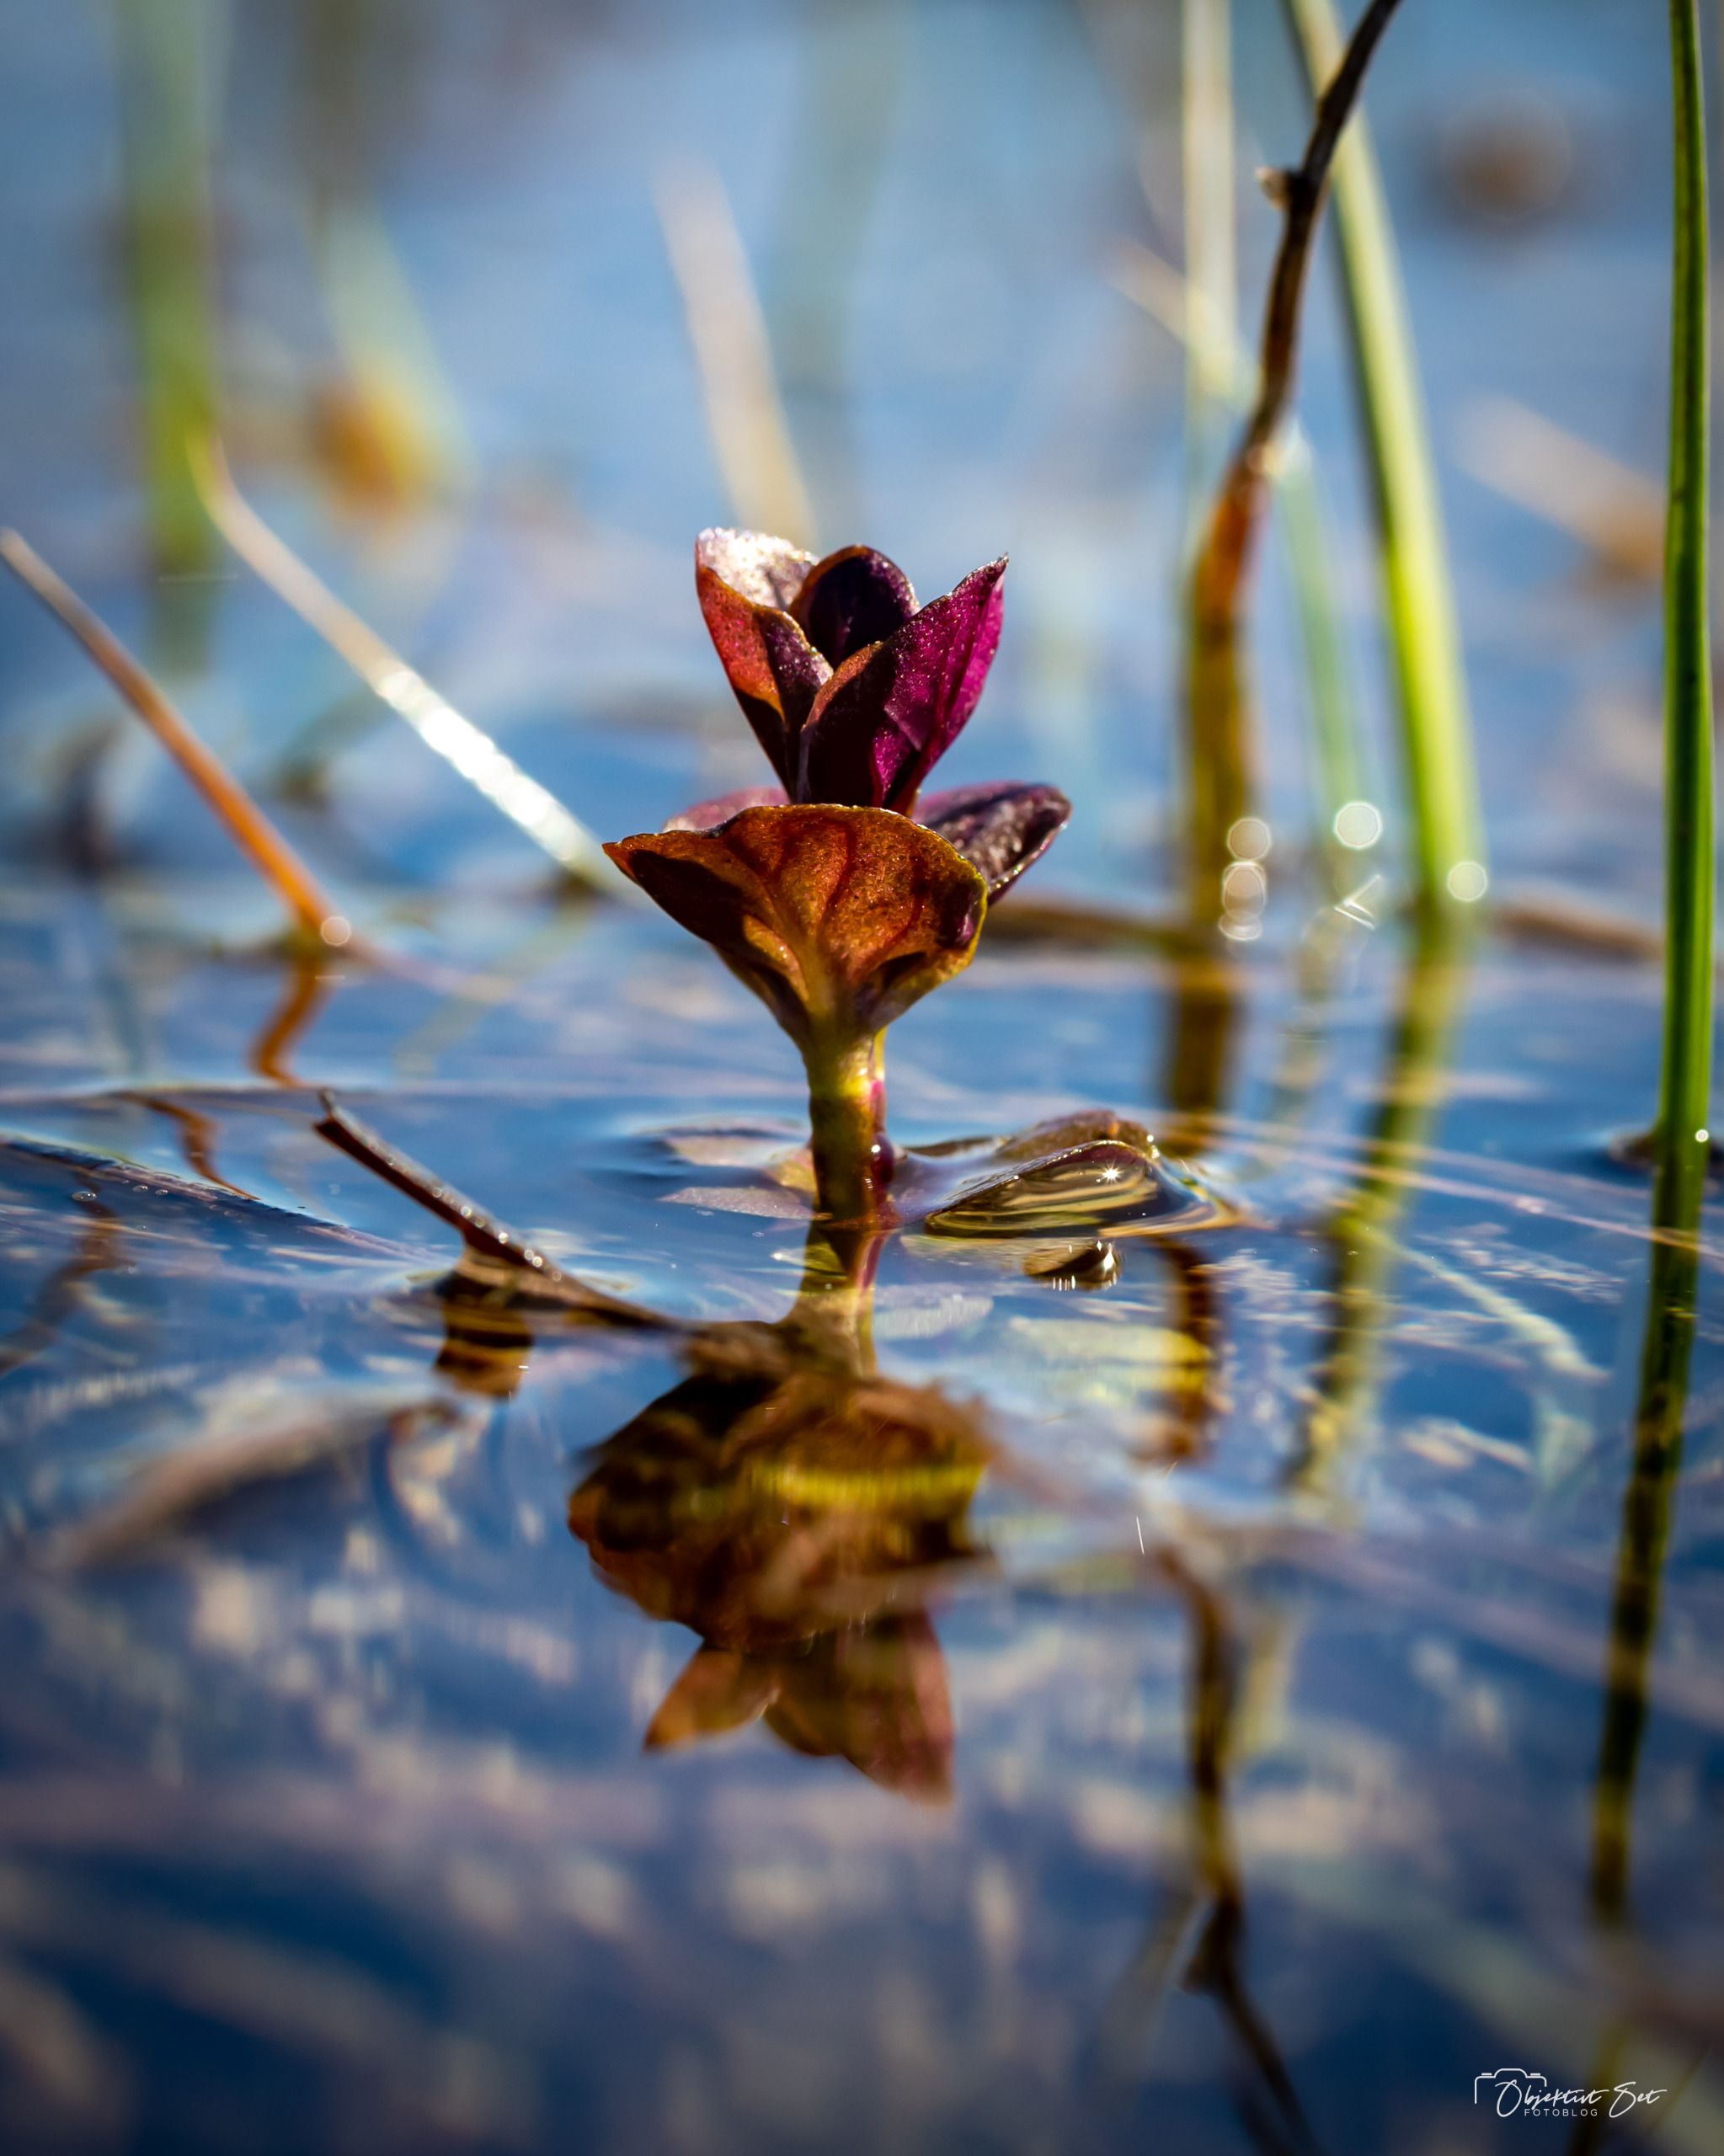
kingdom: Plantae
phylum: Tracheophyta
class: Magnoliopsida
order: Lamiales
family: Lamiaceae
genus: Mentha
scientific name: Mentha aquatica
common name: Vand-mynte
